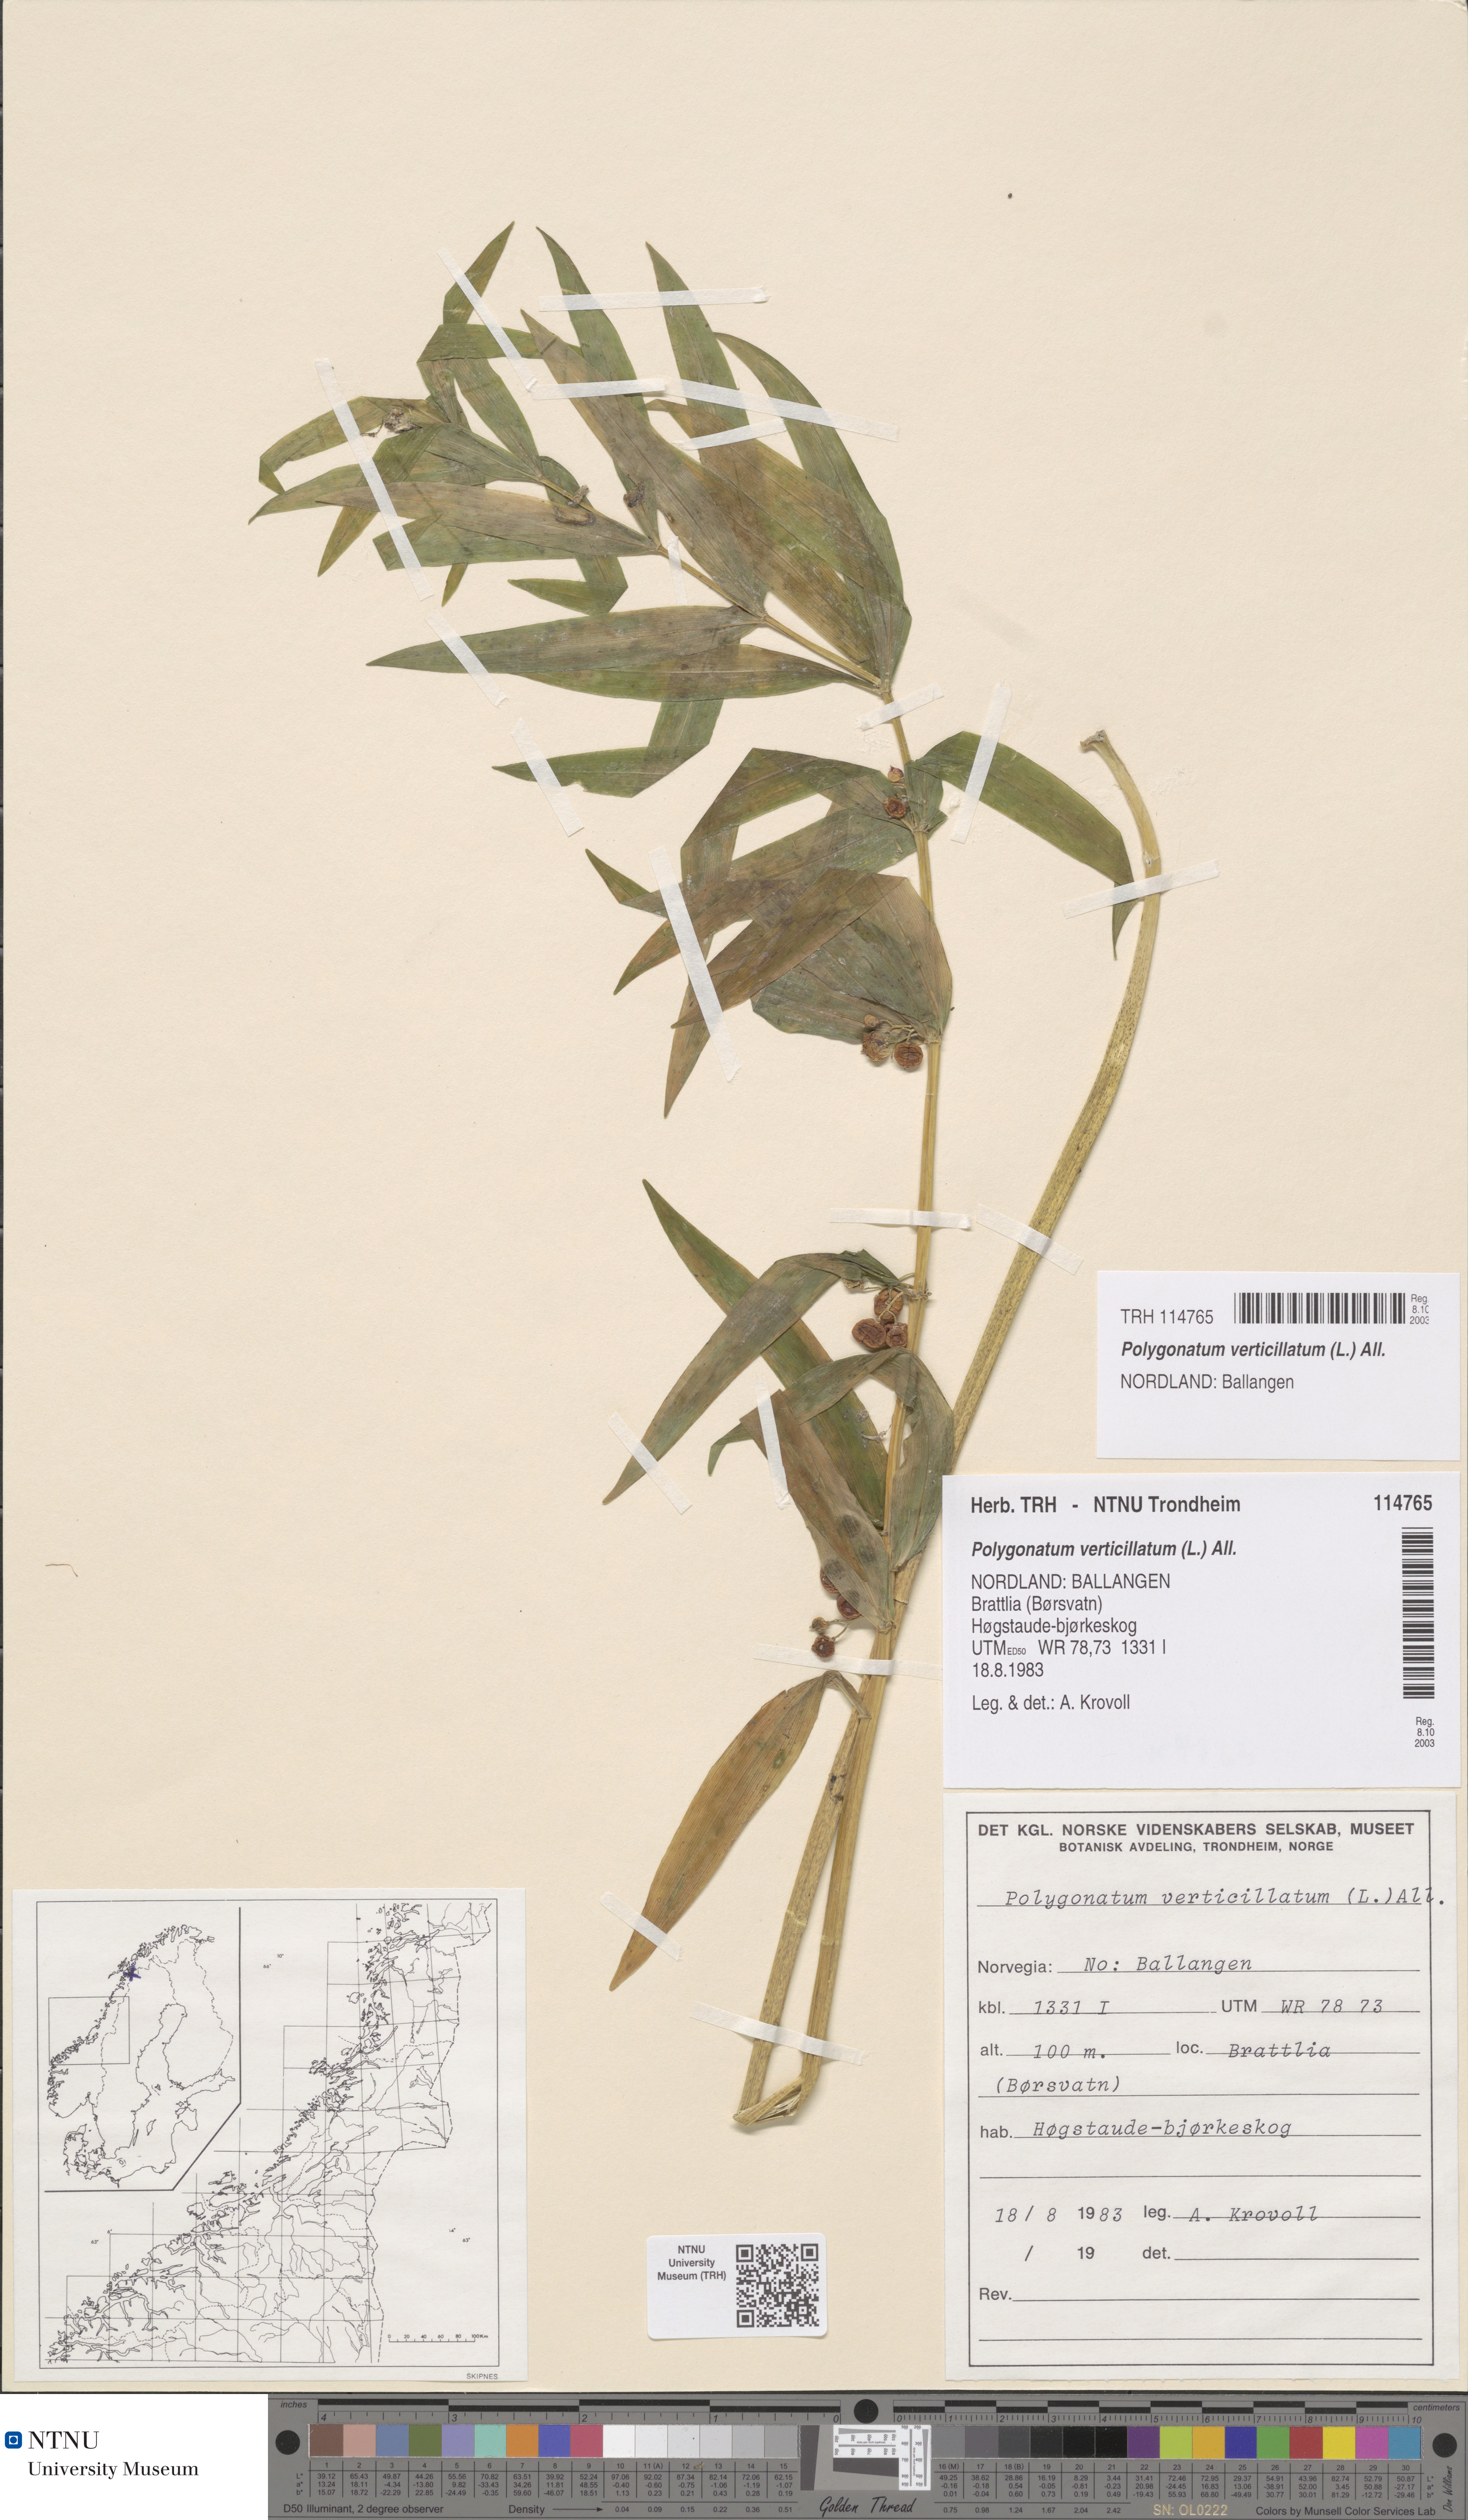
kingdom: Plantae
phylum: Tracheophyta
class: Liliopsida
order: Asparagales
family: Asparagaceae
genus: Polygonatum
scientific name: Polygonatum verticillatum
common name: Whorled solomon's-seal
